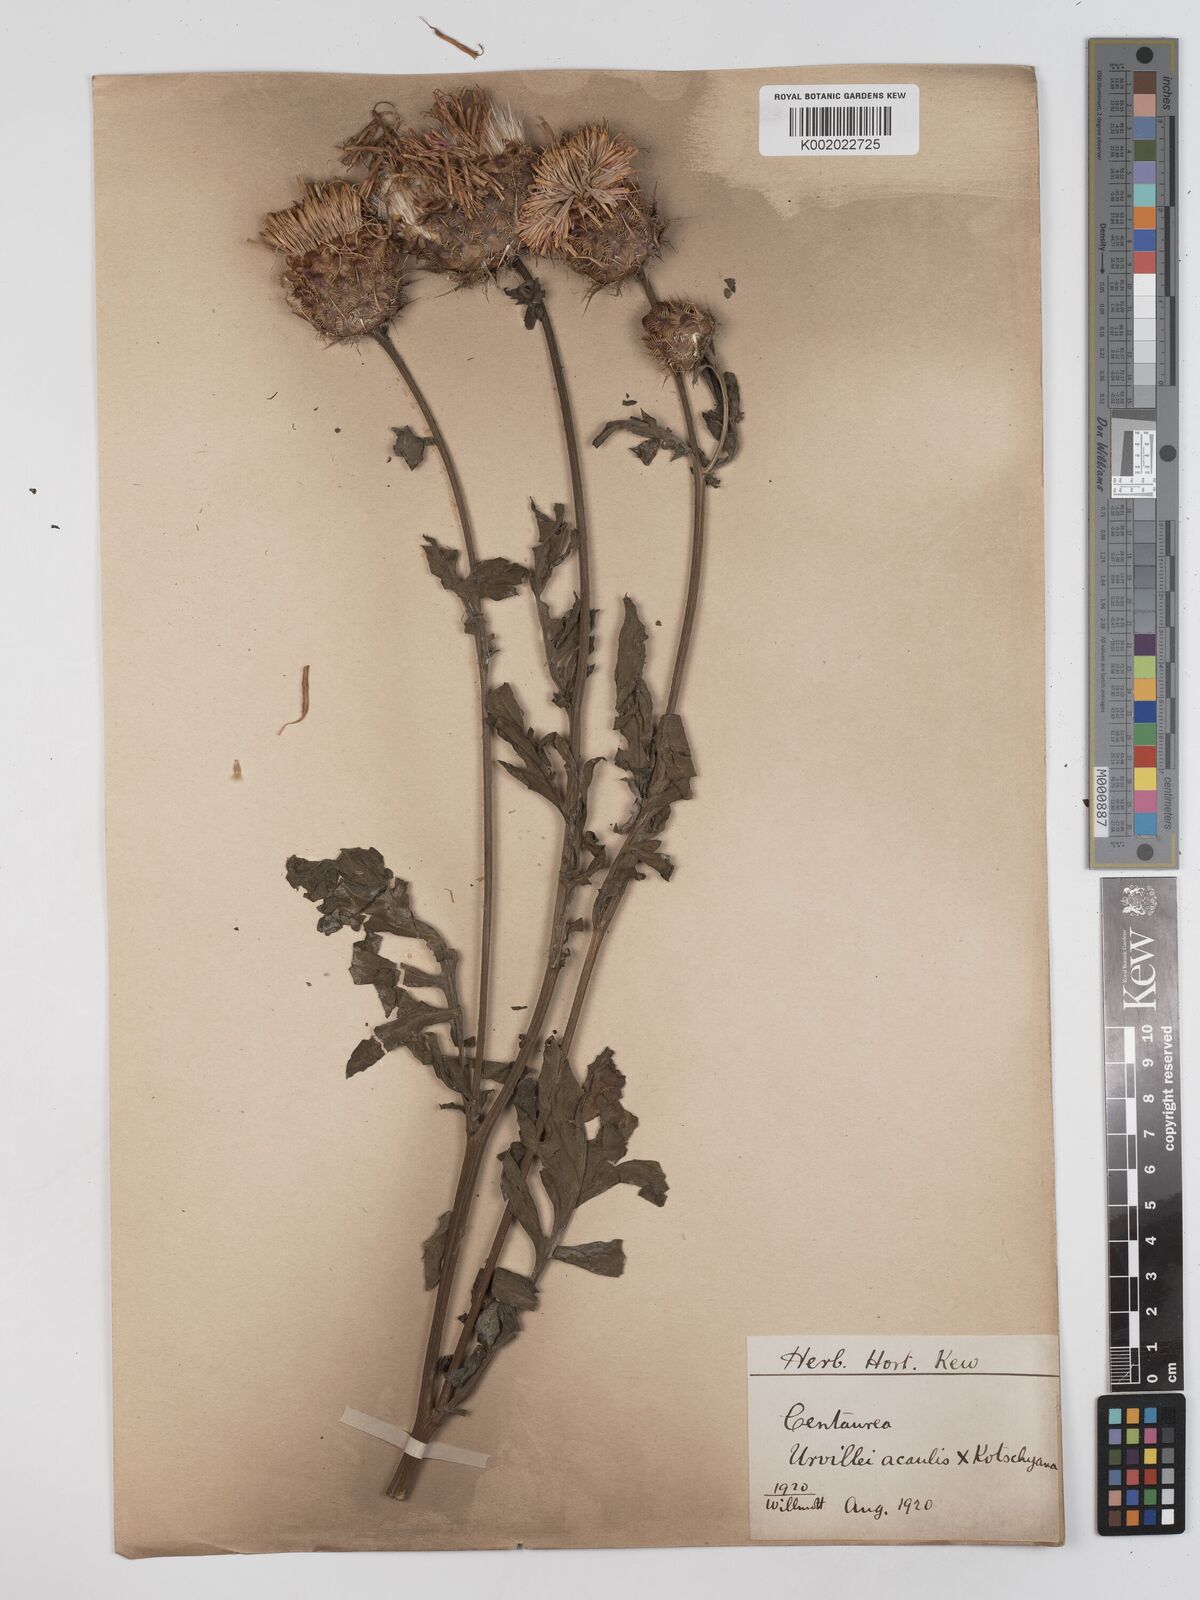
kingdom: Plantae
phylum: Tracheophyta
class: Magnoliopsida
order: Asterales
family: Asteraceae
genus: Centaurea
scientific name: Centaurea urvillei
